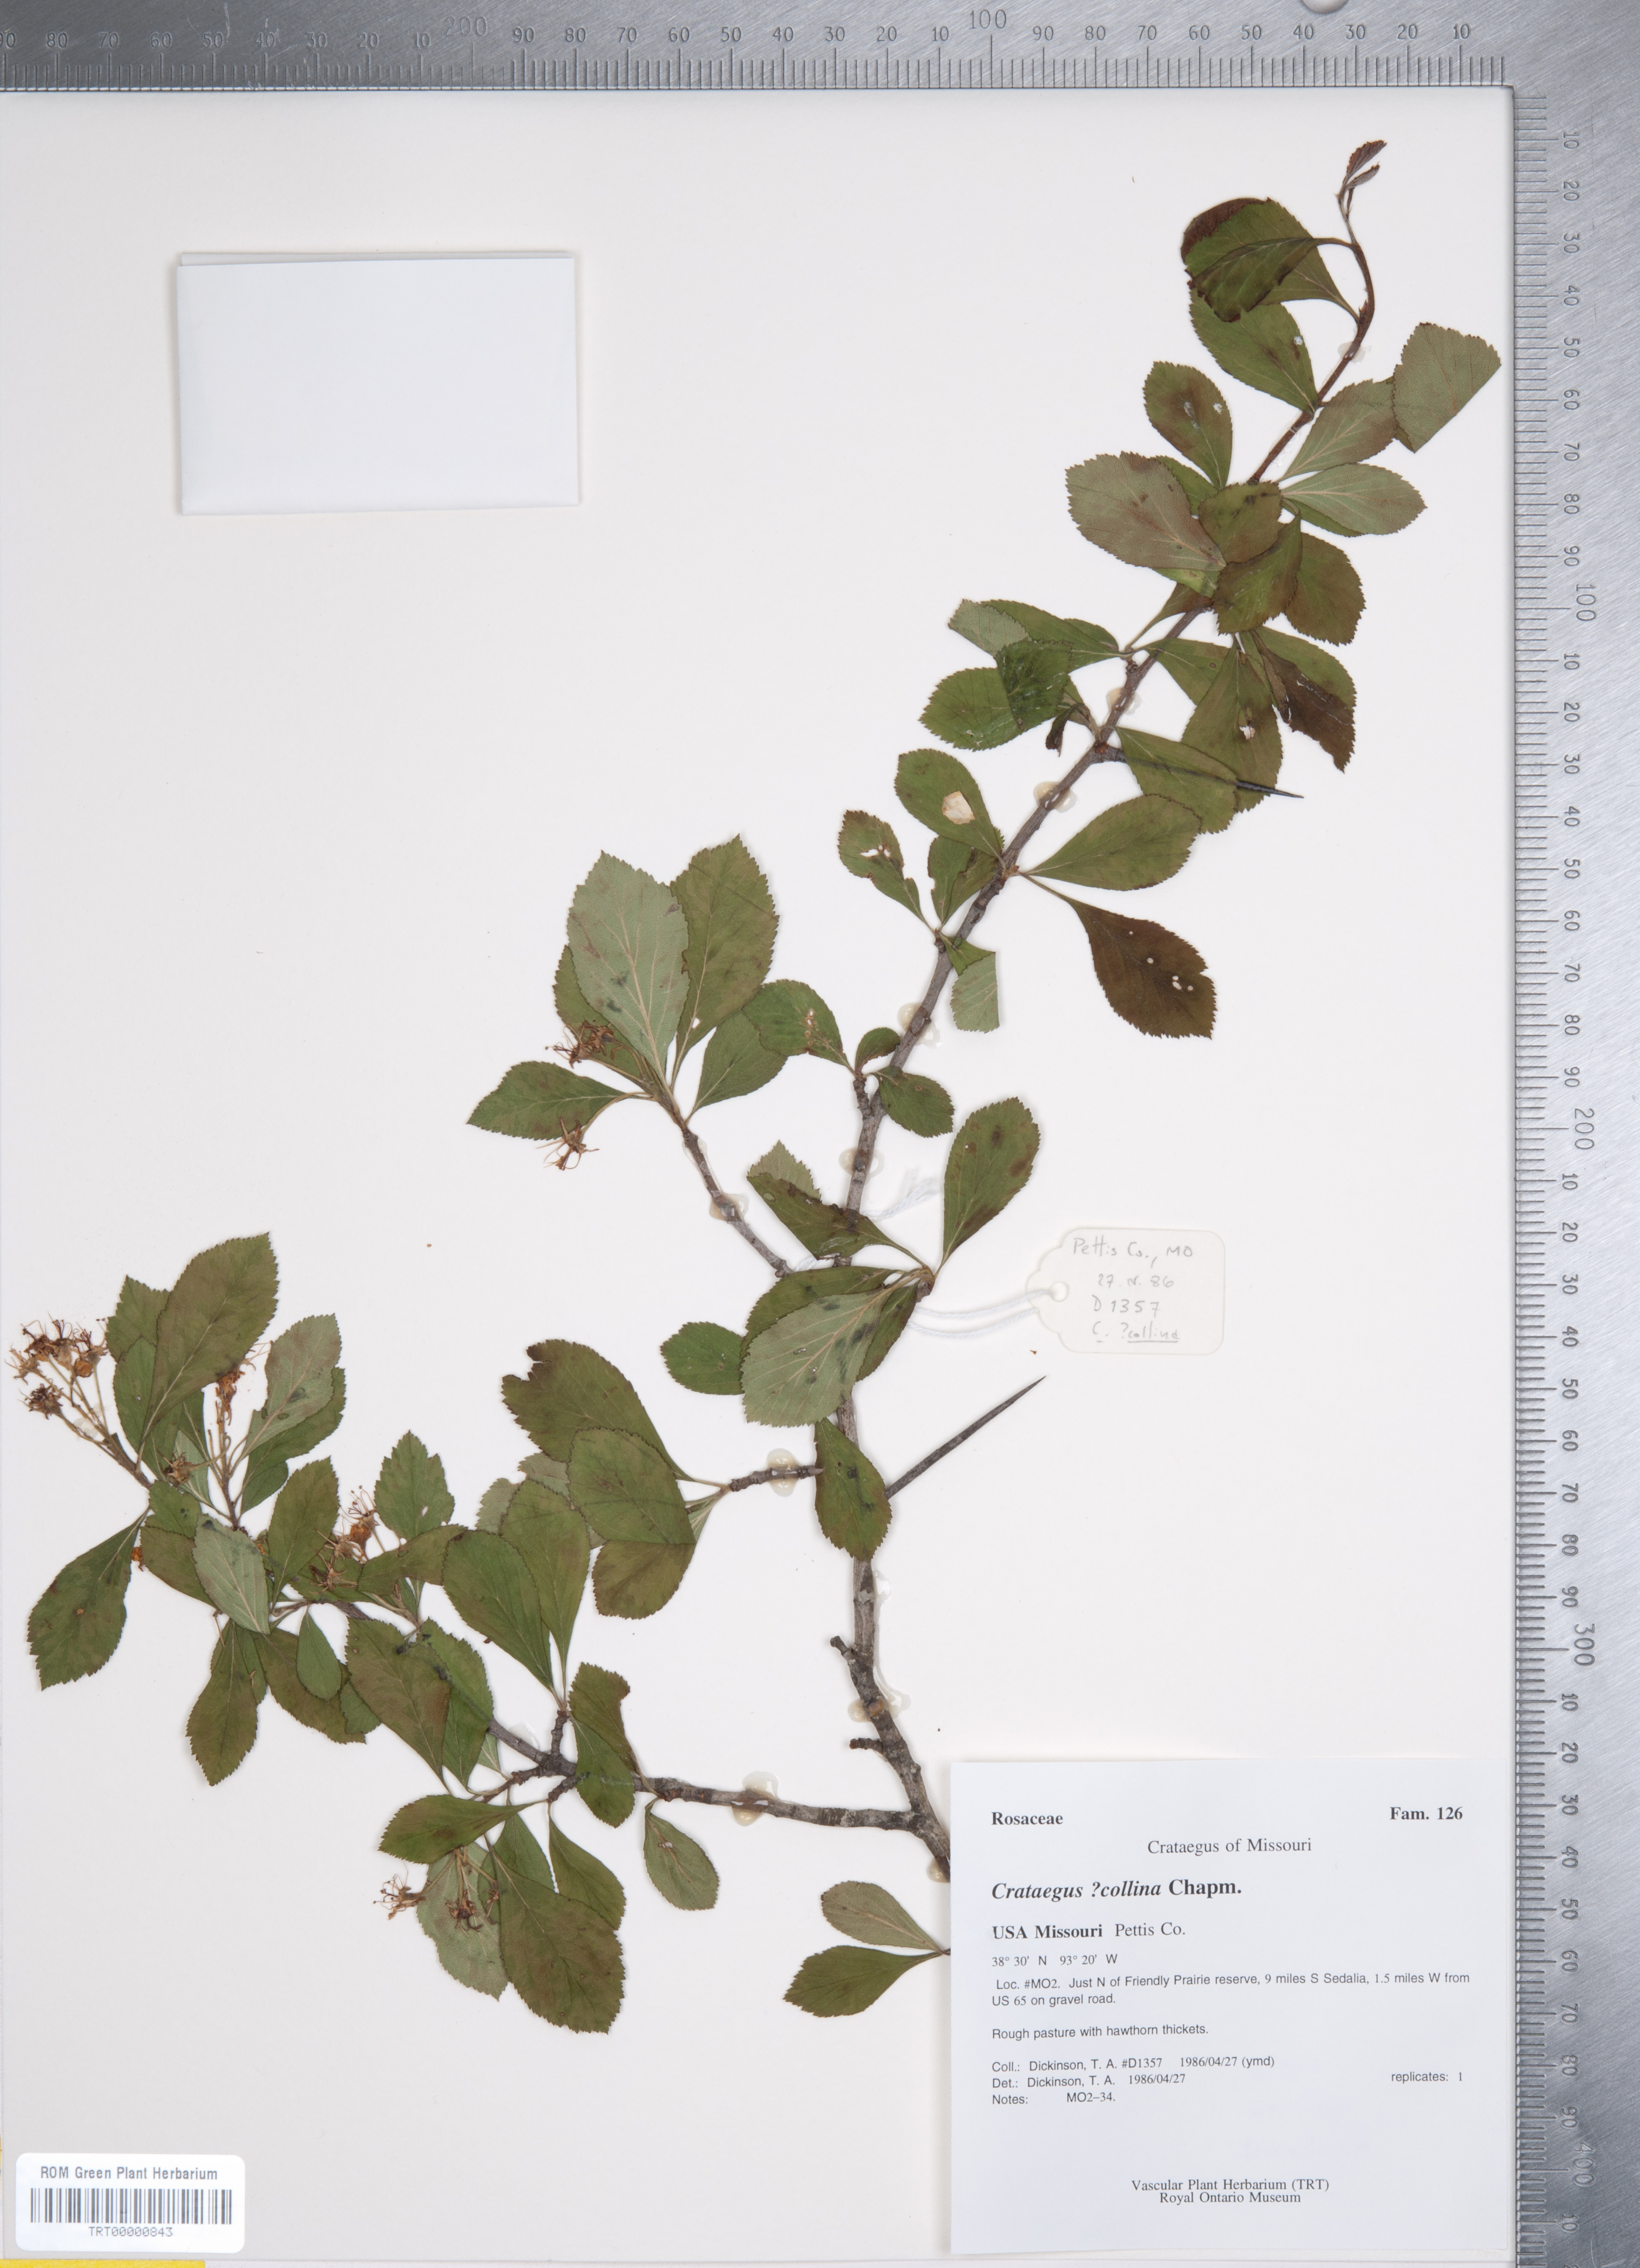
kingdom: Plantae
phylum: Tracheophyta
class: Magnoliopsida
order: Rosales
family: Rosaceae
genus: Crataegus
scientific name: Crataegus collina
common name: Hillside hawthorn
